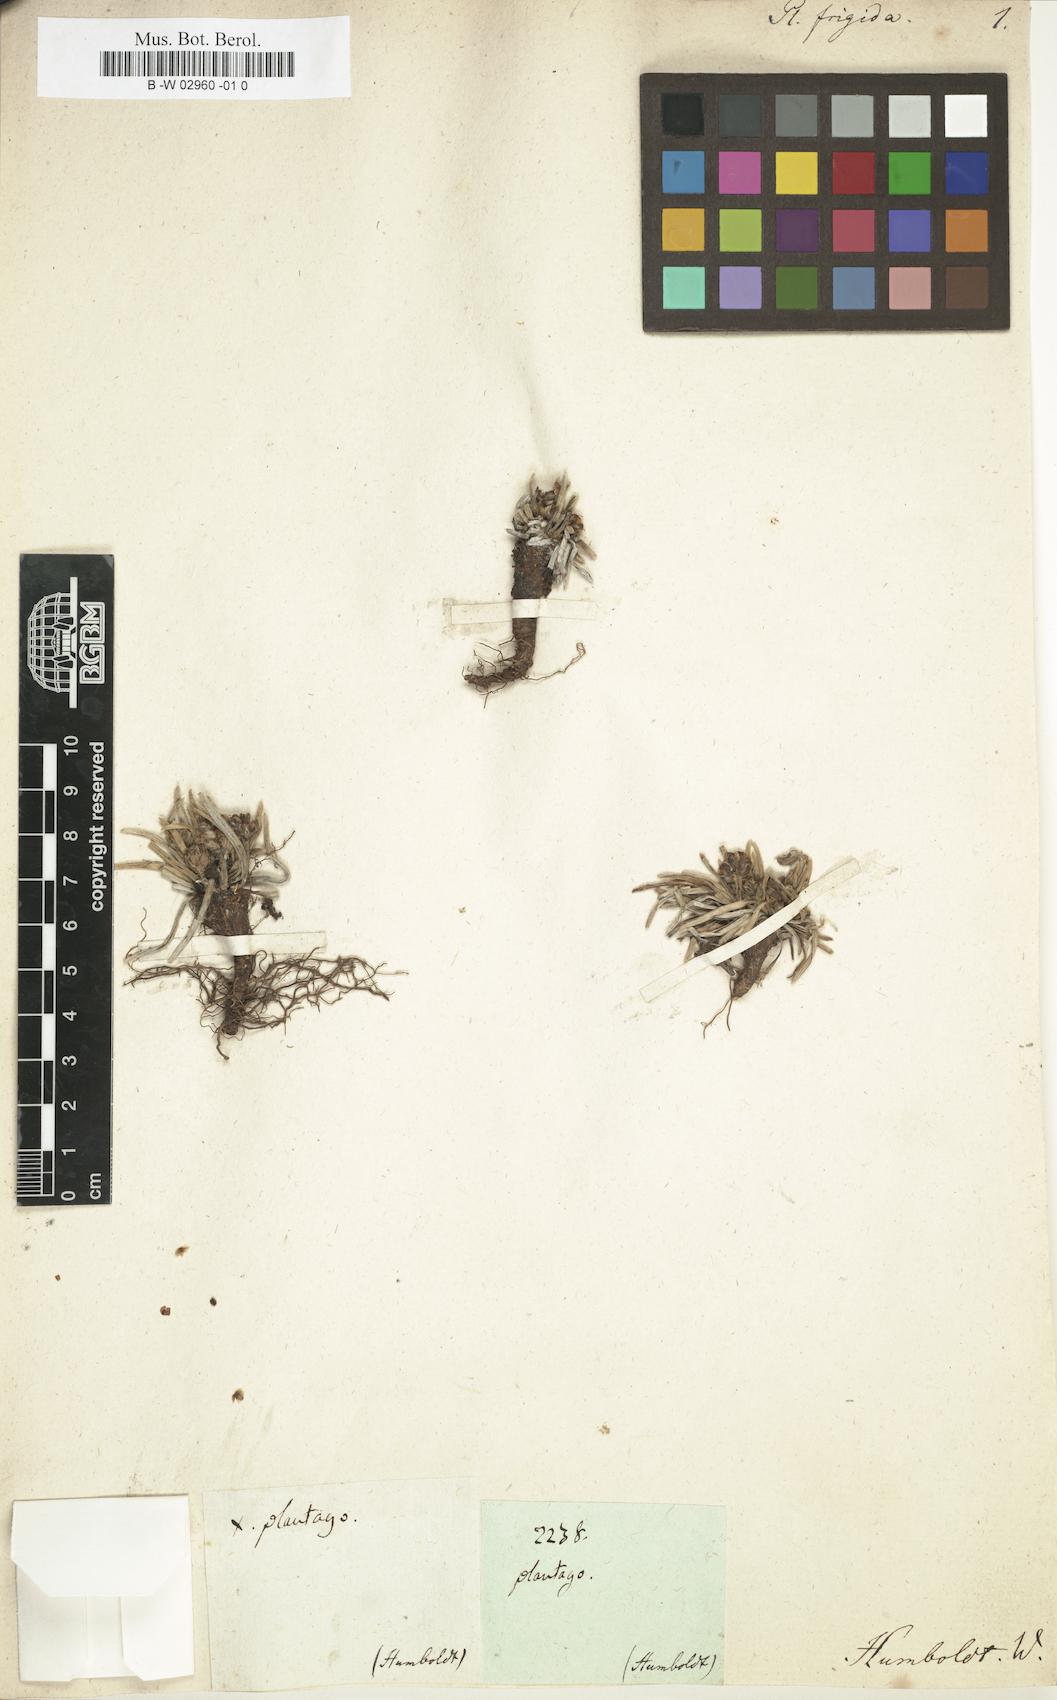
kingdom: Plantae
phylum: Tracheophyta
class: Magnoliopsida
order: Lamiales
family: Plantaginaceae
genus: Plantago
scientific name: Plantago
